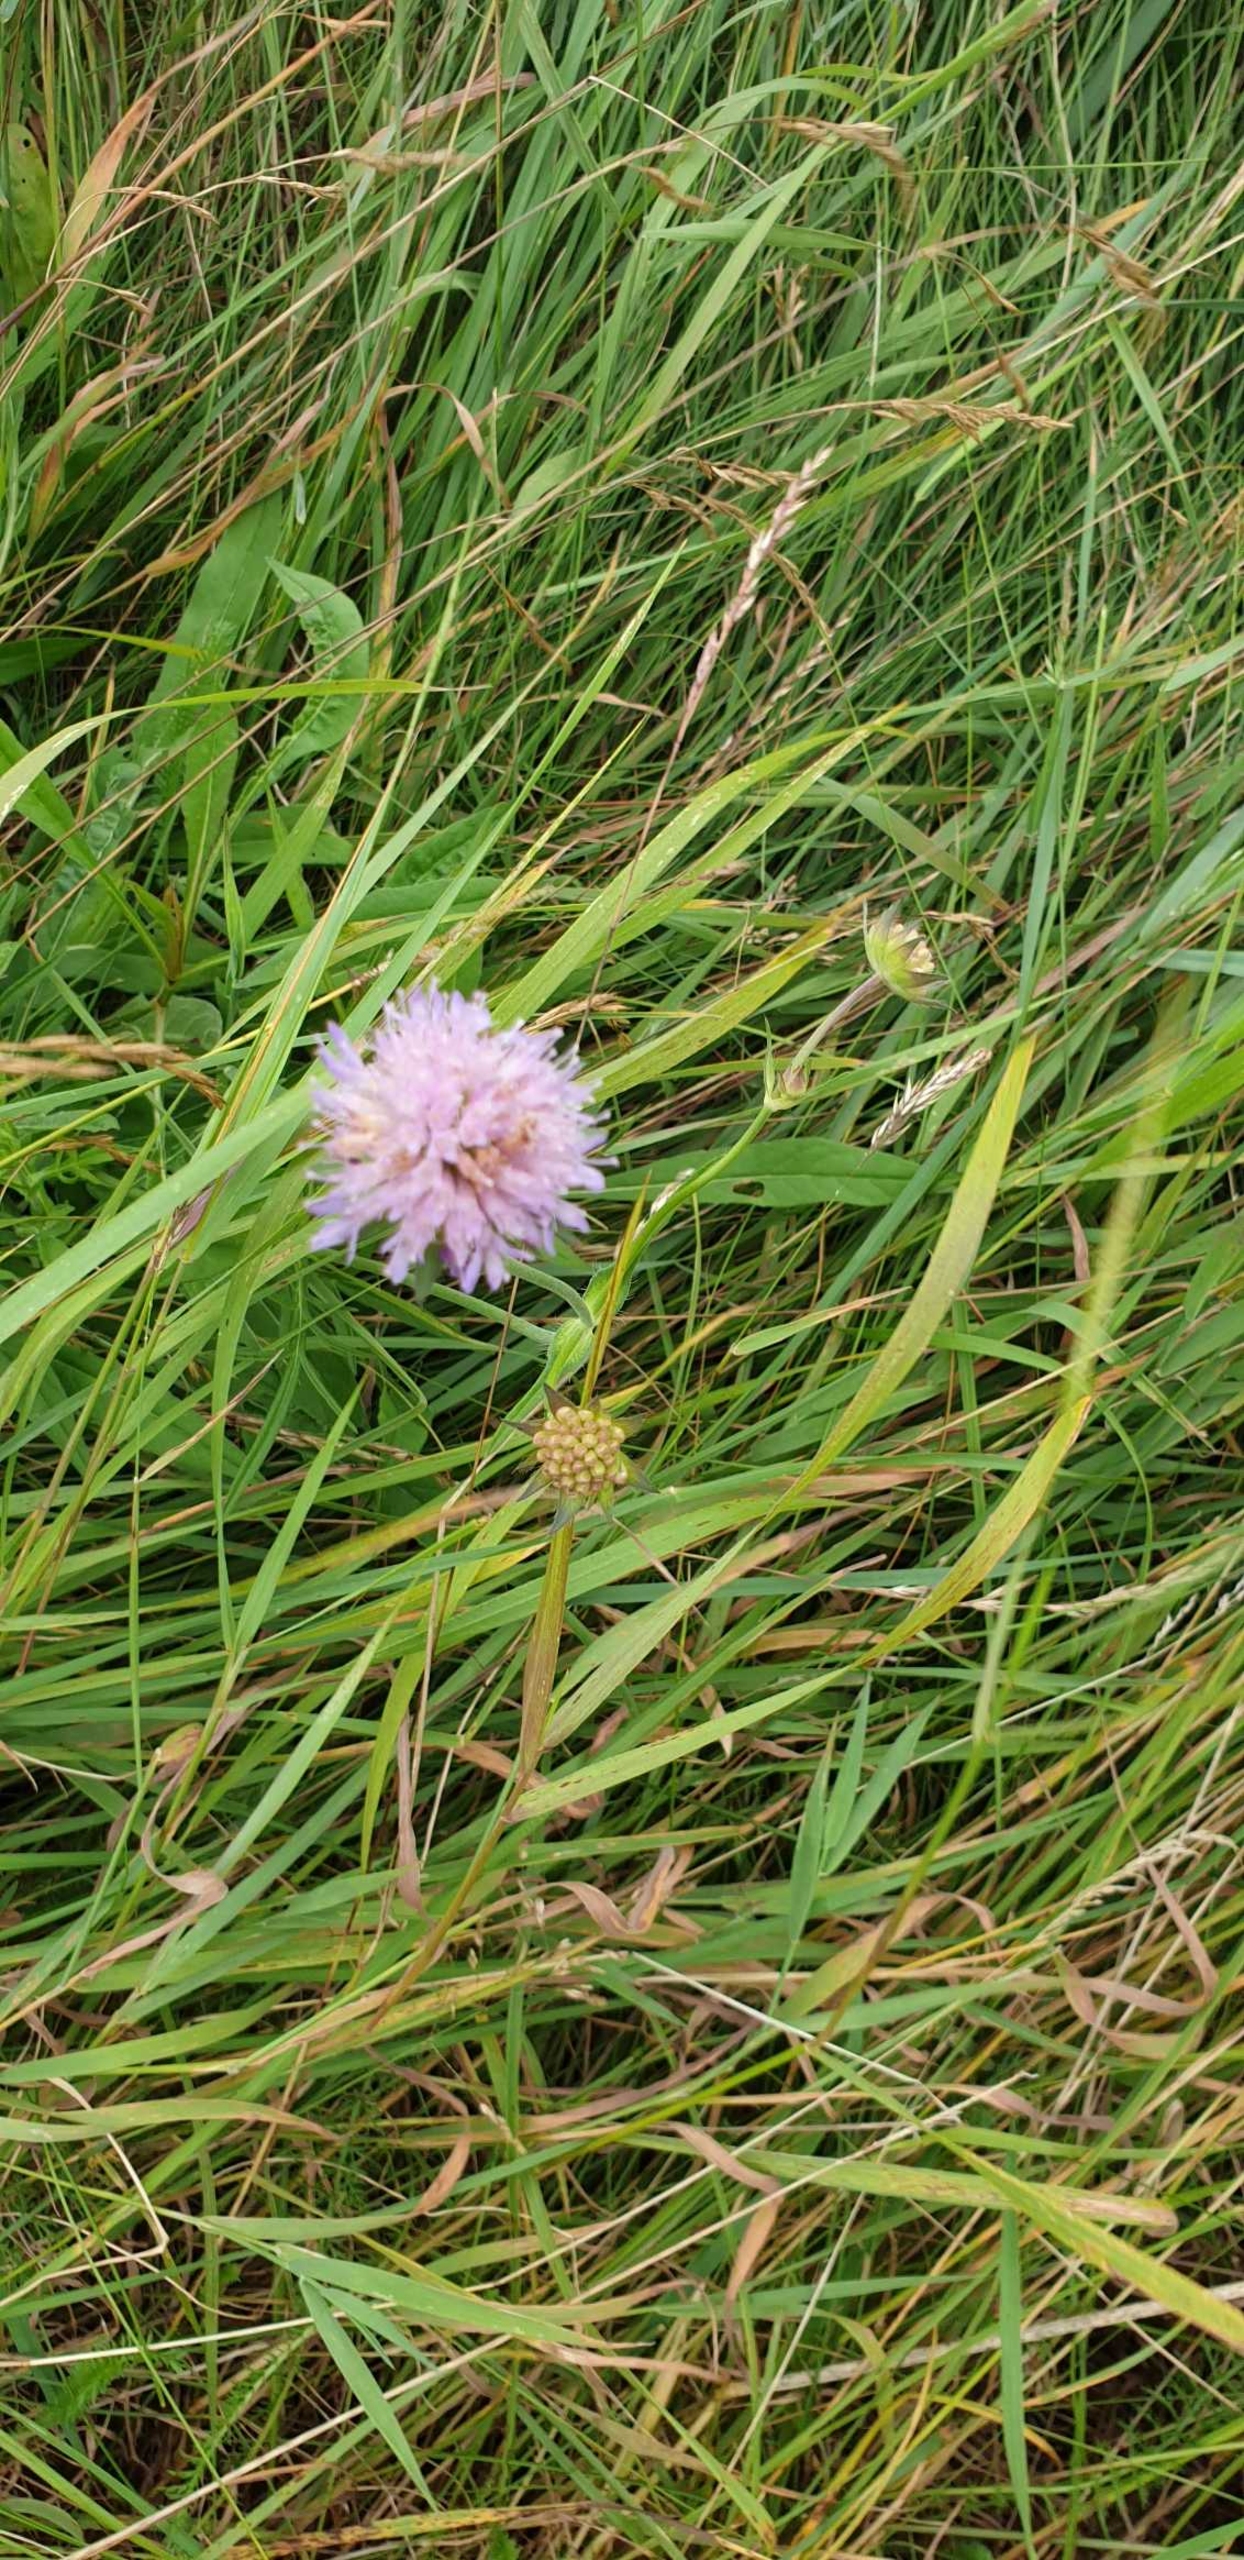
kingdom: Plantae
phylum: Tracheophyta
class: Magnoliopsida
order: Dipsacales
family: Caprifoliaceae
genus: Knautia
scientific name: Knautia arvensis
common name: Blåhat
